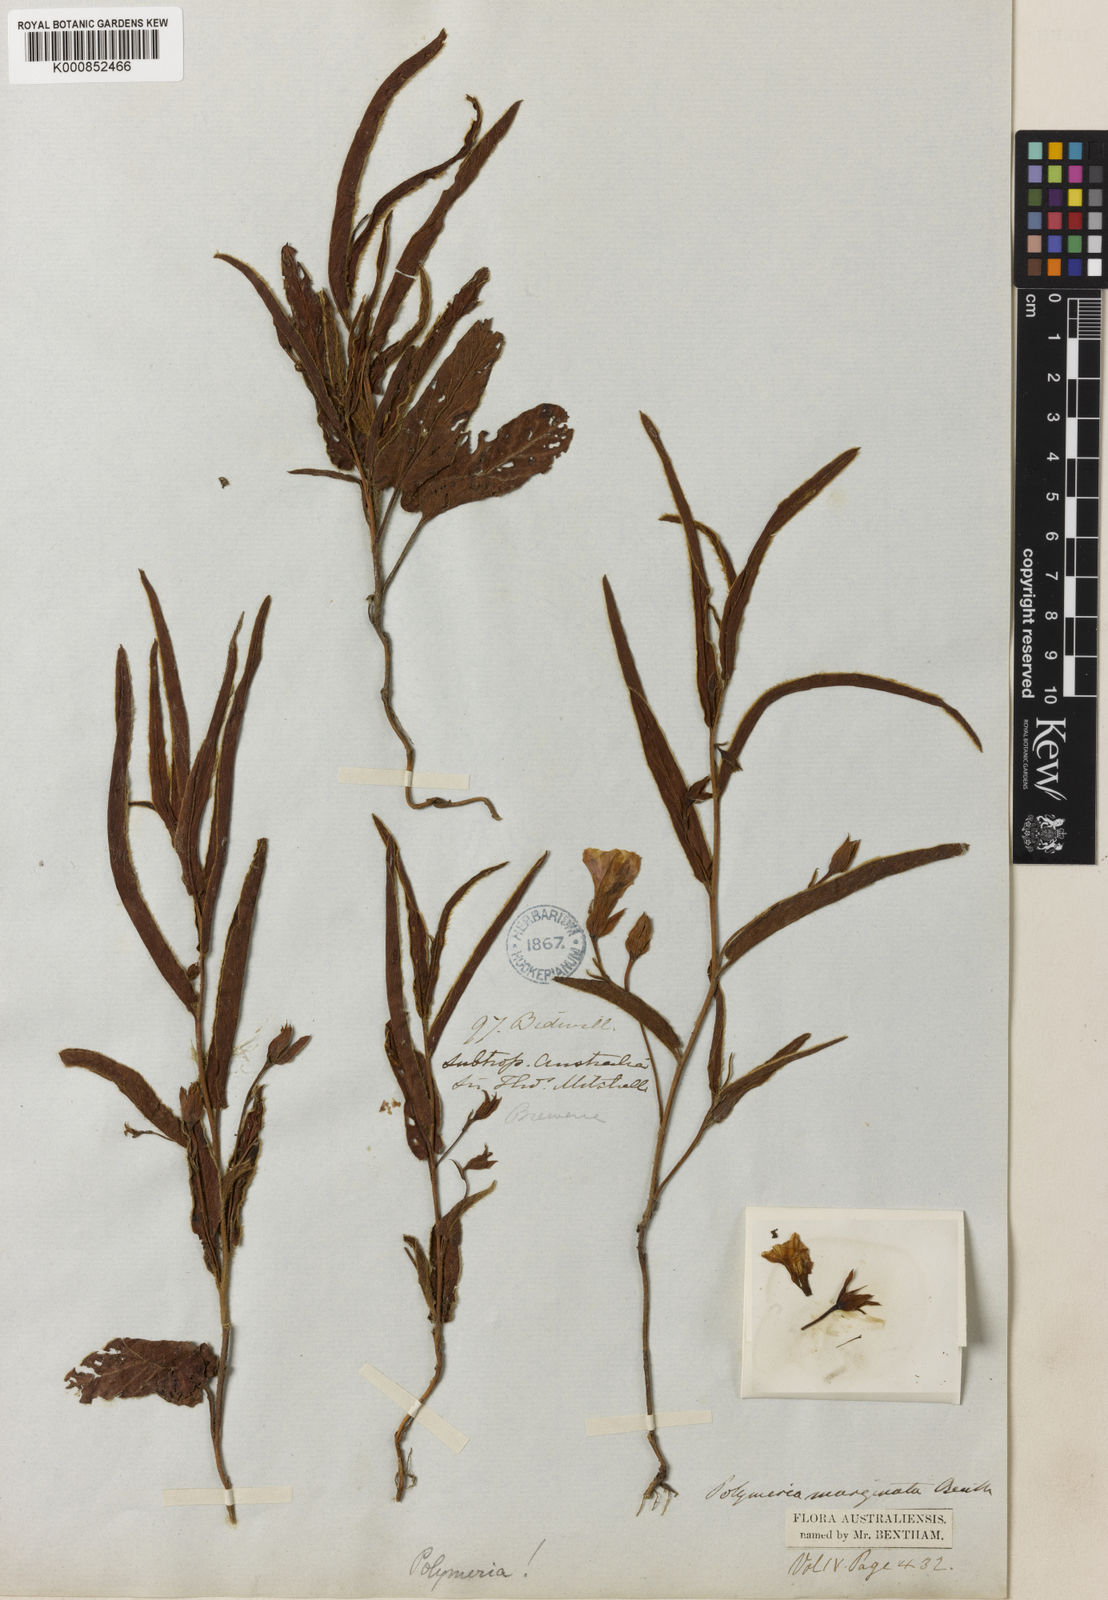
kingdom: Plantae
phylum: Tracheophyta
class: Magnoliopsida
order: Solanales
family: Convolvulaceae
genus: Polymeria
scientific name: Polymeria marginata
